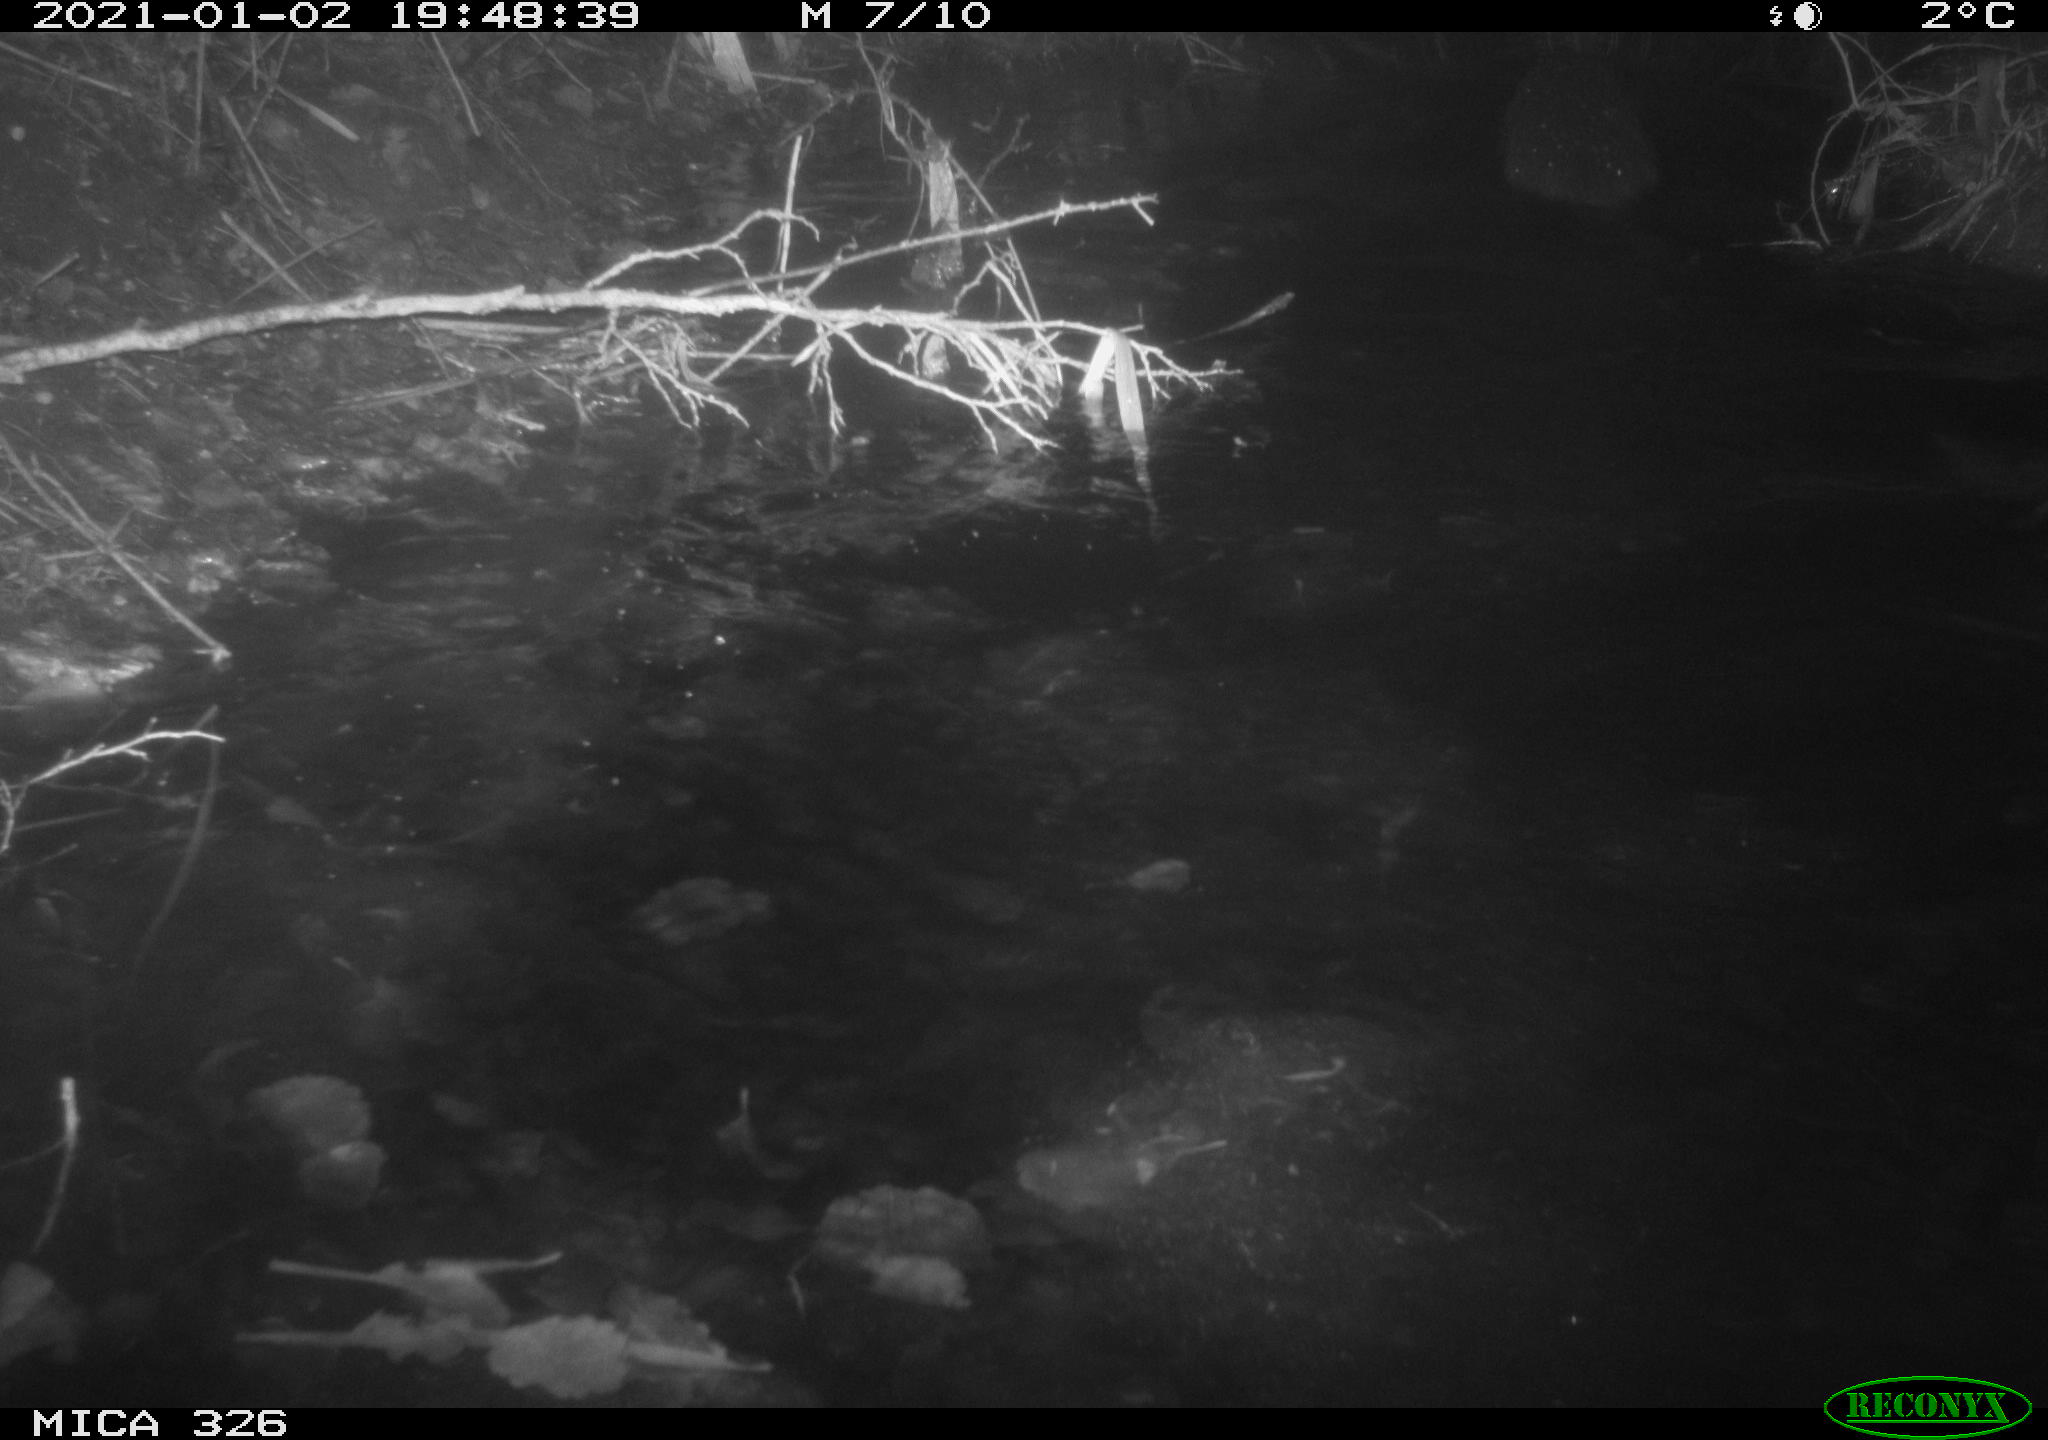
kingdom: Animalia
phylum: Chordata
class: Mammalia
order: Carnivora
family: Mustelidae
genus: Lutra
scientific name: Lutra lutra
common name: European otter
